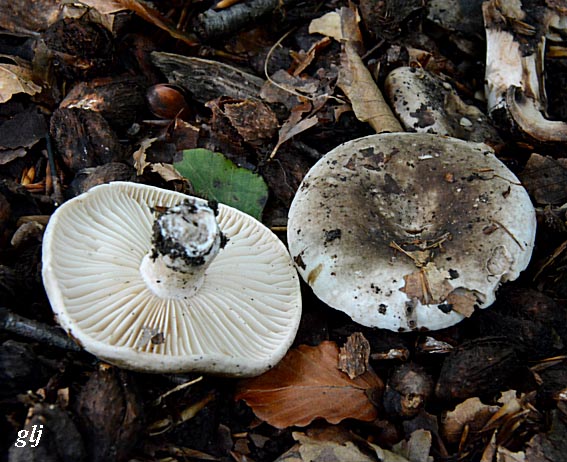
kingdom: Fungi
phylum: Basidiomycota
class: Agaricomycetes
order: Russulales
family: Russulaceae
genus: Russula
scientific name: Russula adusta
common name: sværtende skørhat
